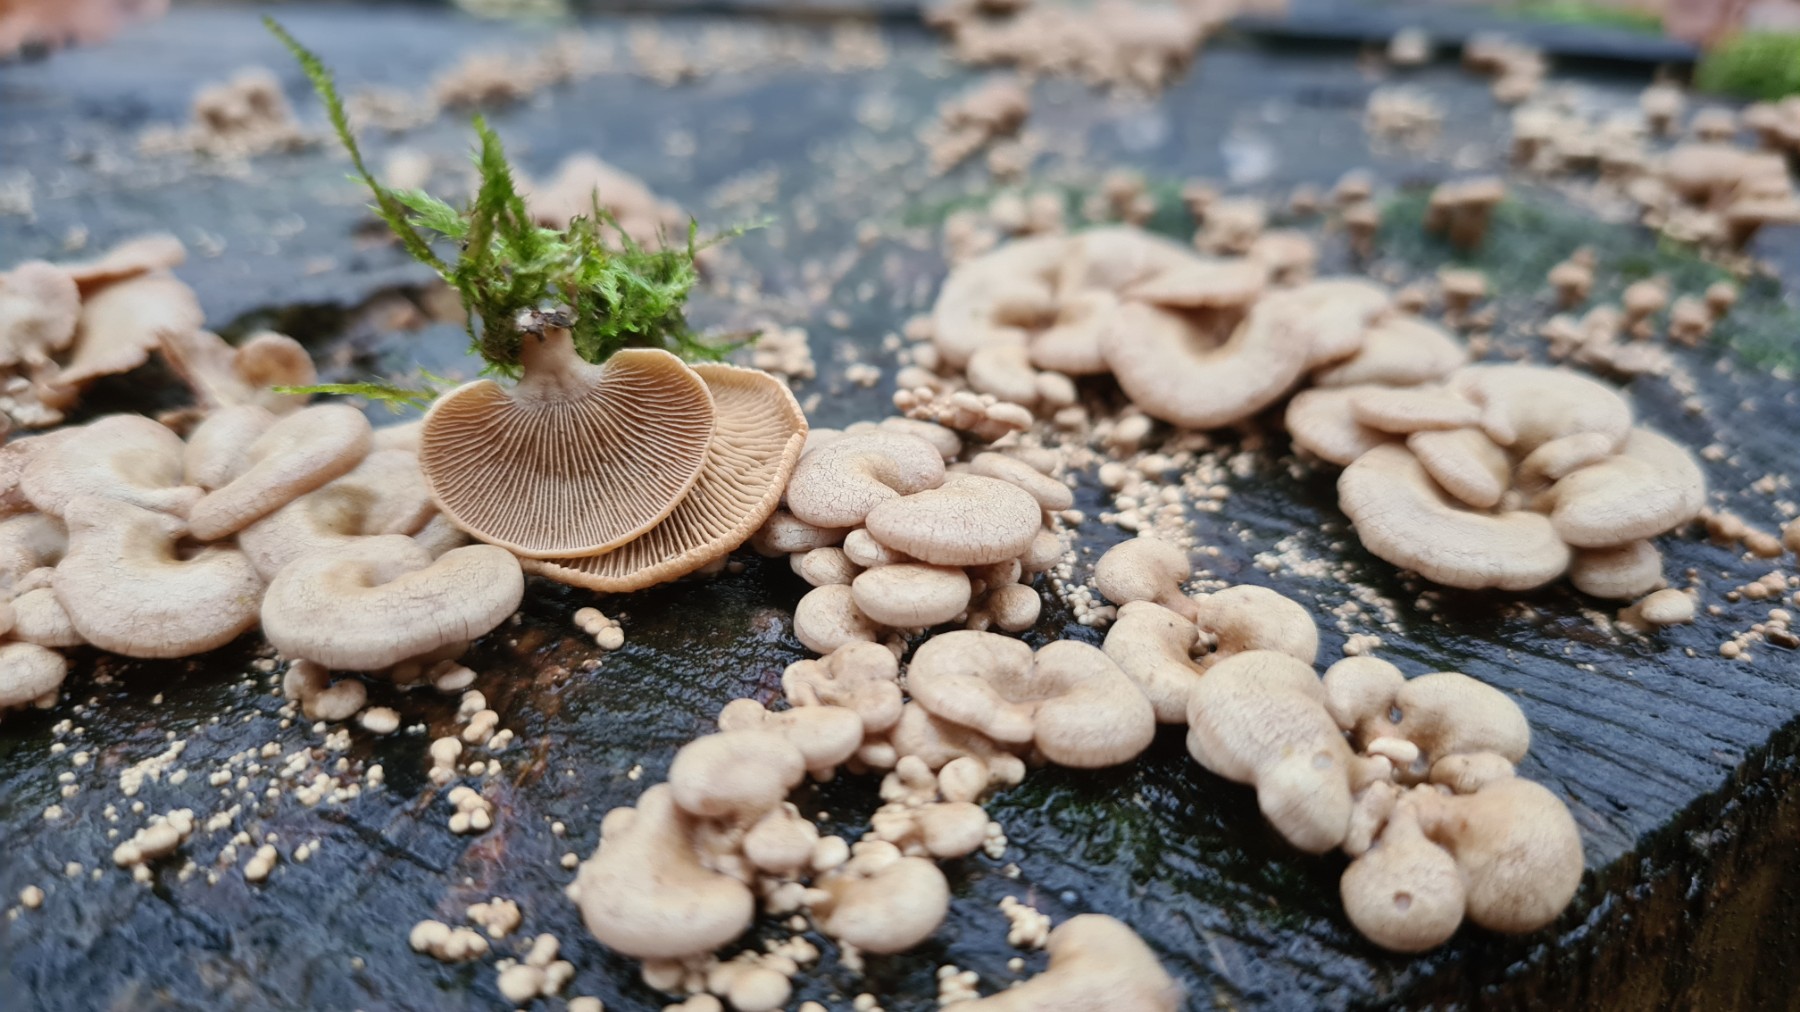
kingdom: Fungi
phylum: Basidiomycota
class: Agaricomycetes
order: Agaricales
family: Mycenaceae
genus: Panellus
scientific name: Panellus stipticus
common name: kliddet epaulethat
